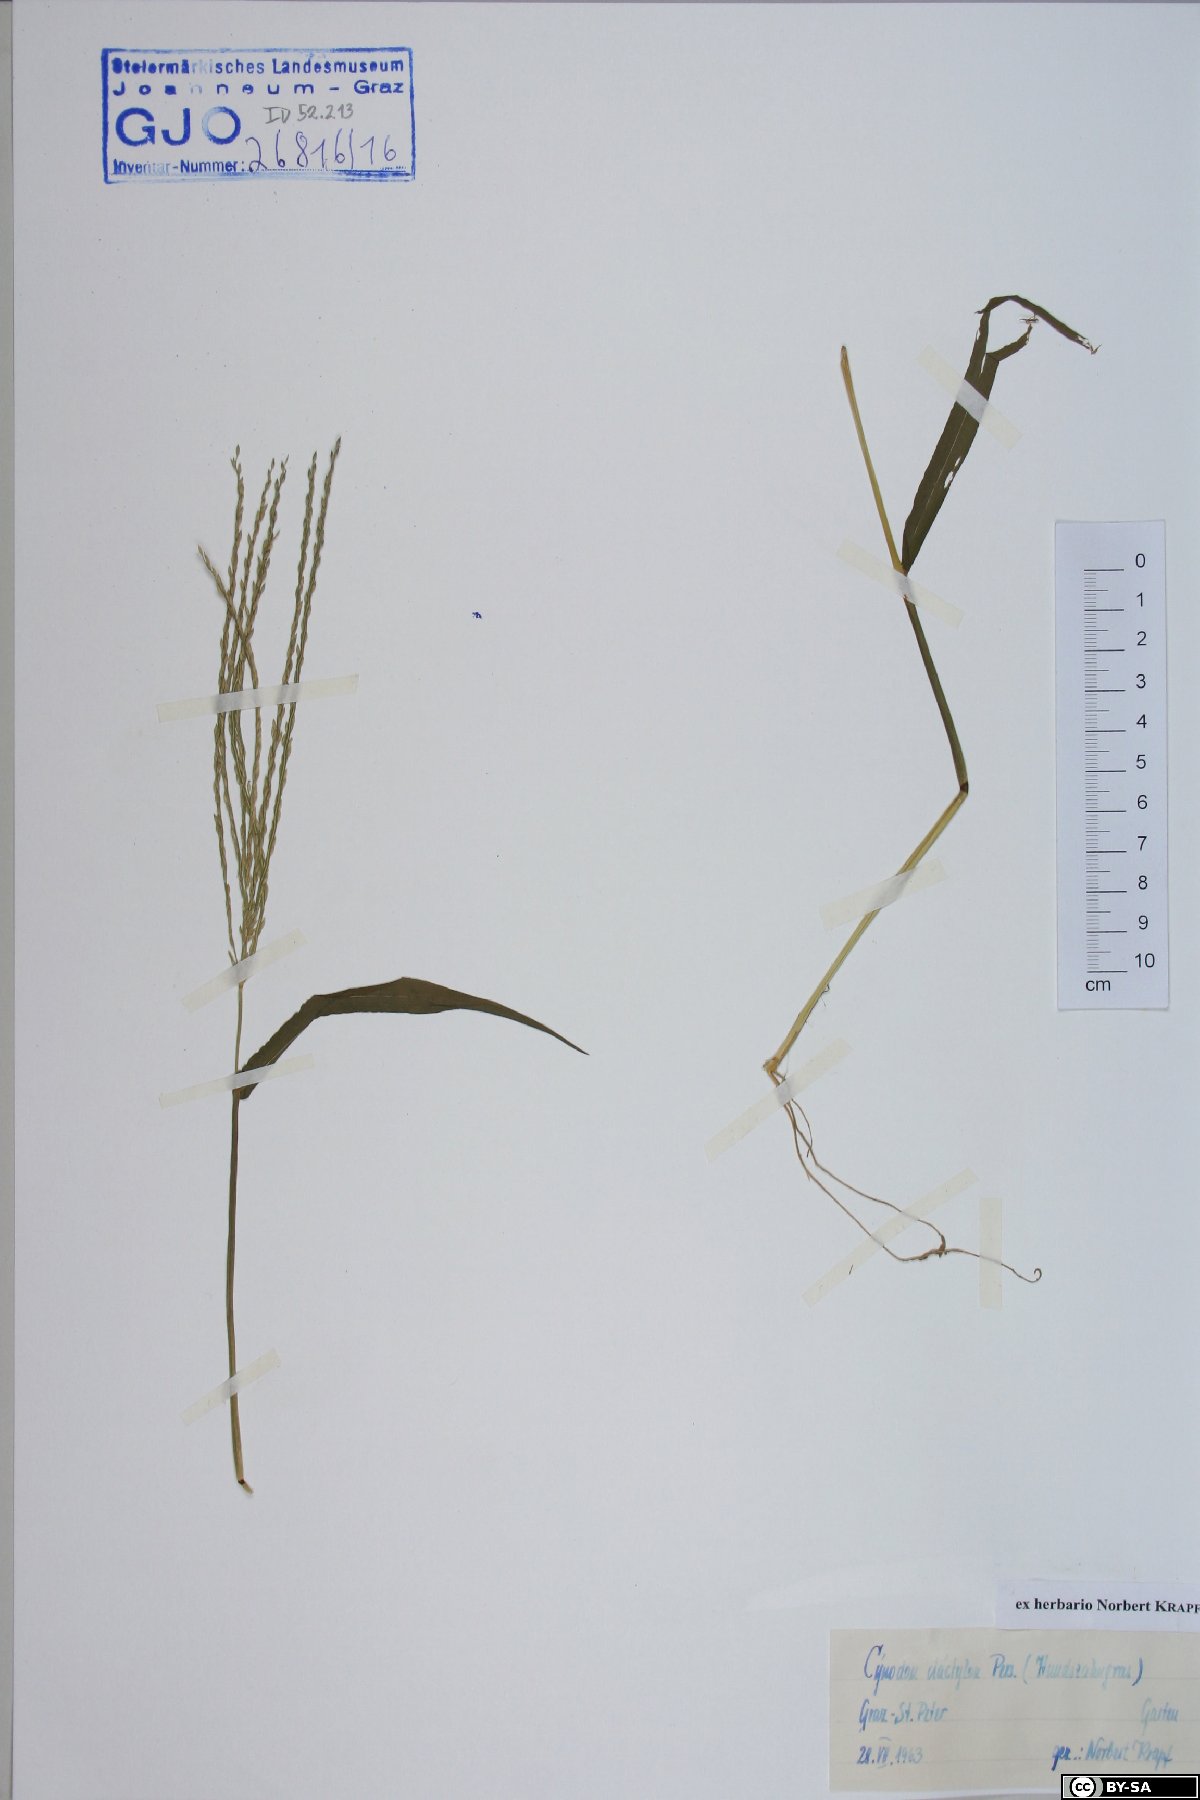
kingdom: Plantae
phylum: Tracheophyta
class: Liliopsida
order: Poales
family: Poaceae
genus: Digitaria
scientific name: Digitaria sanguinalis
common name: Hairy crabgrass
